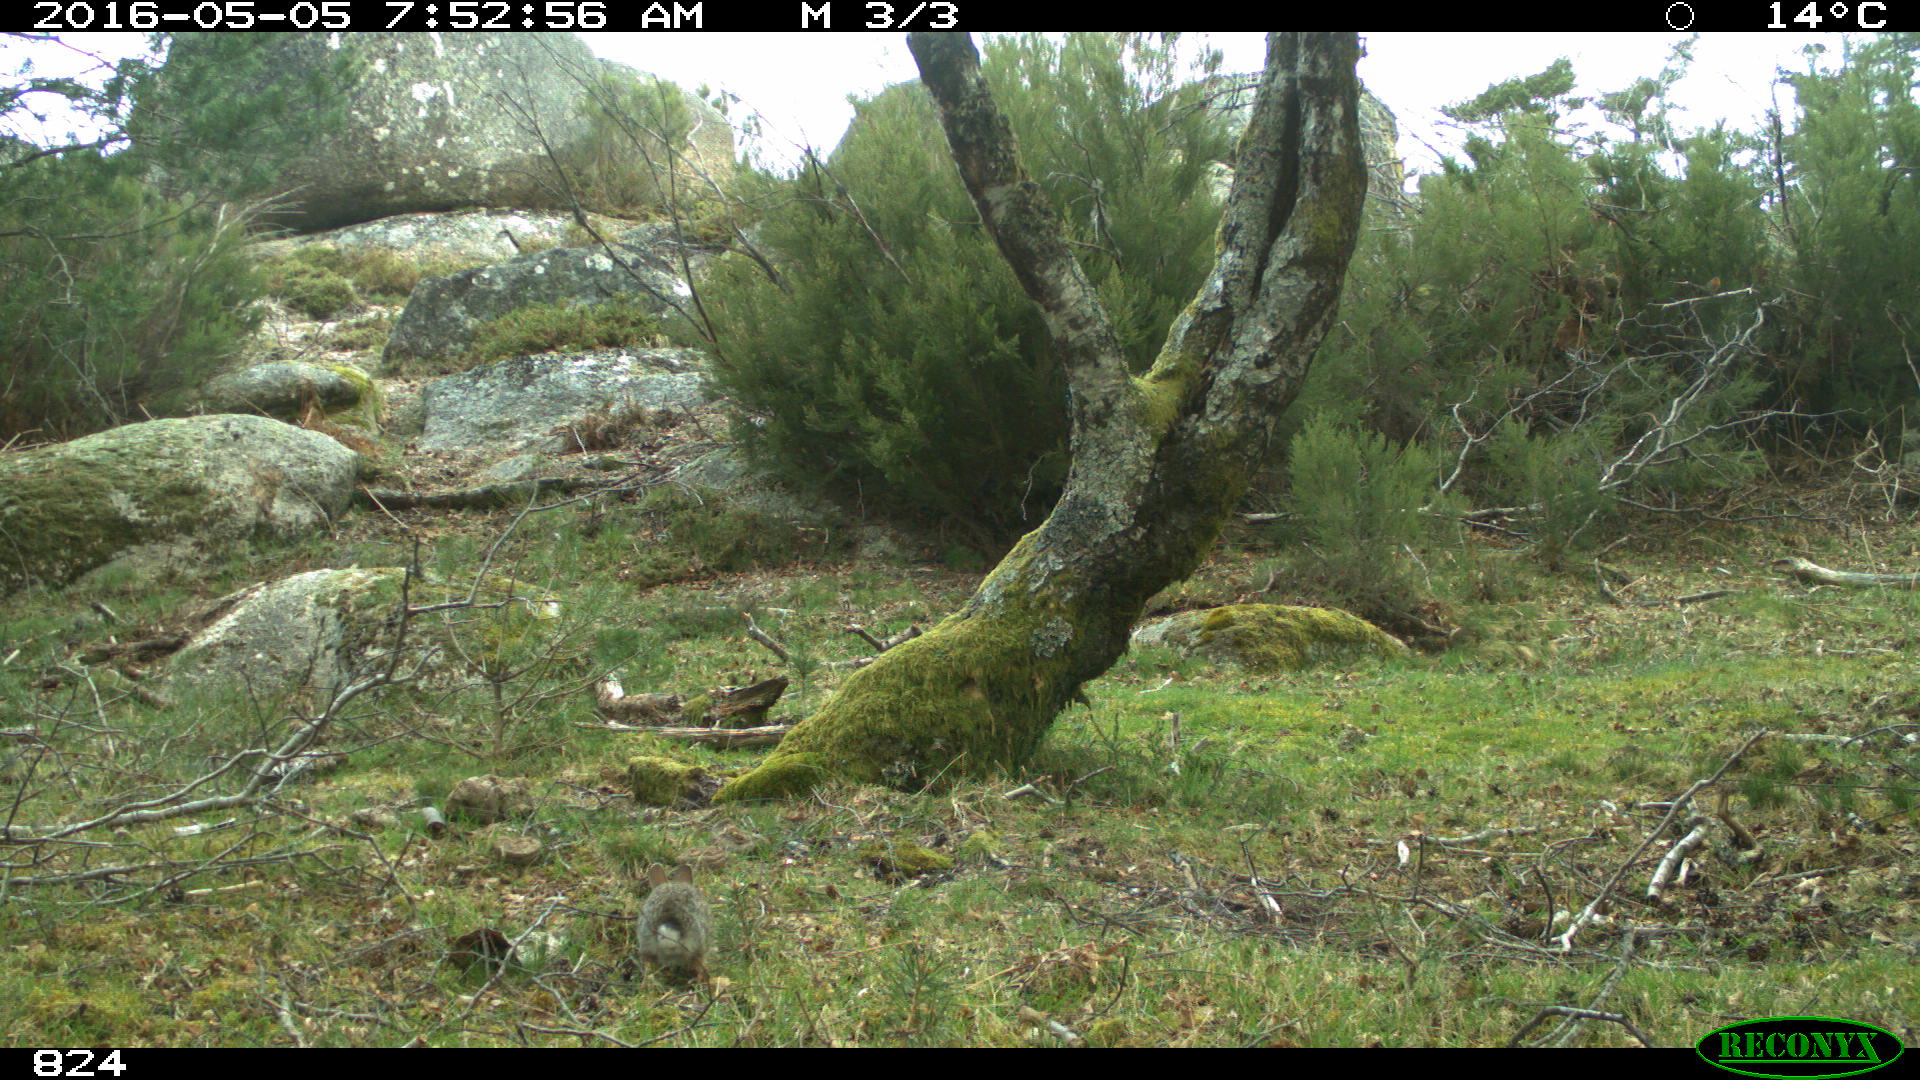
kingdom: Animalia
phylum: Chordata
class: Mammalia
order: Lagomorpha
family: Leporidae
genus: Oryctolagus
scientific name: Oryctolagus cuniculus
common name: European rabbit
